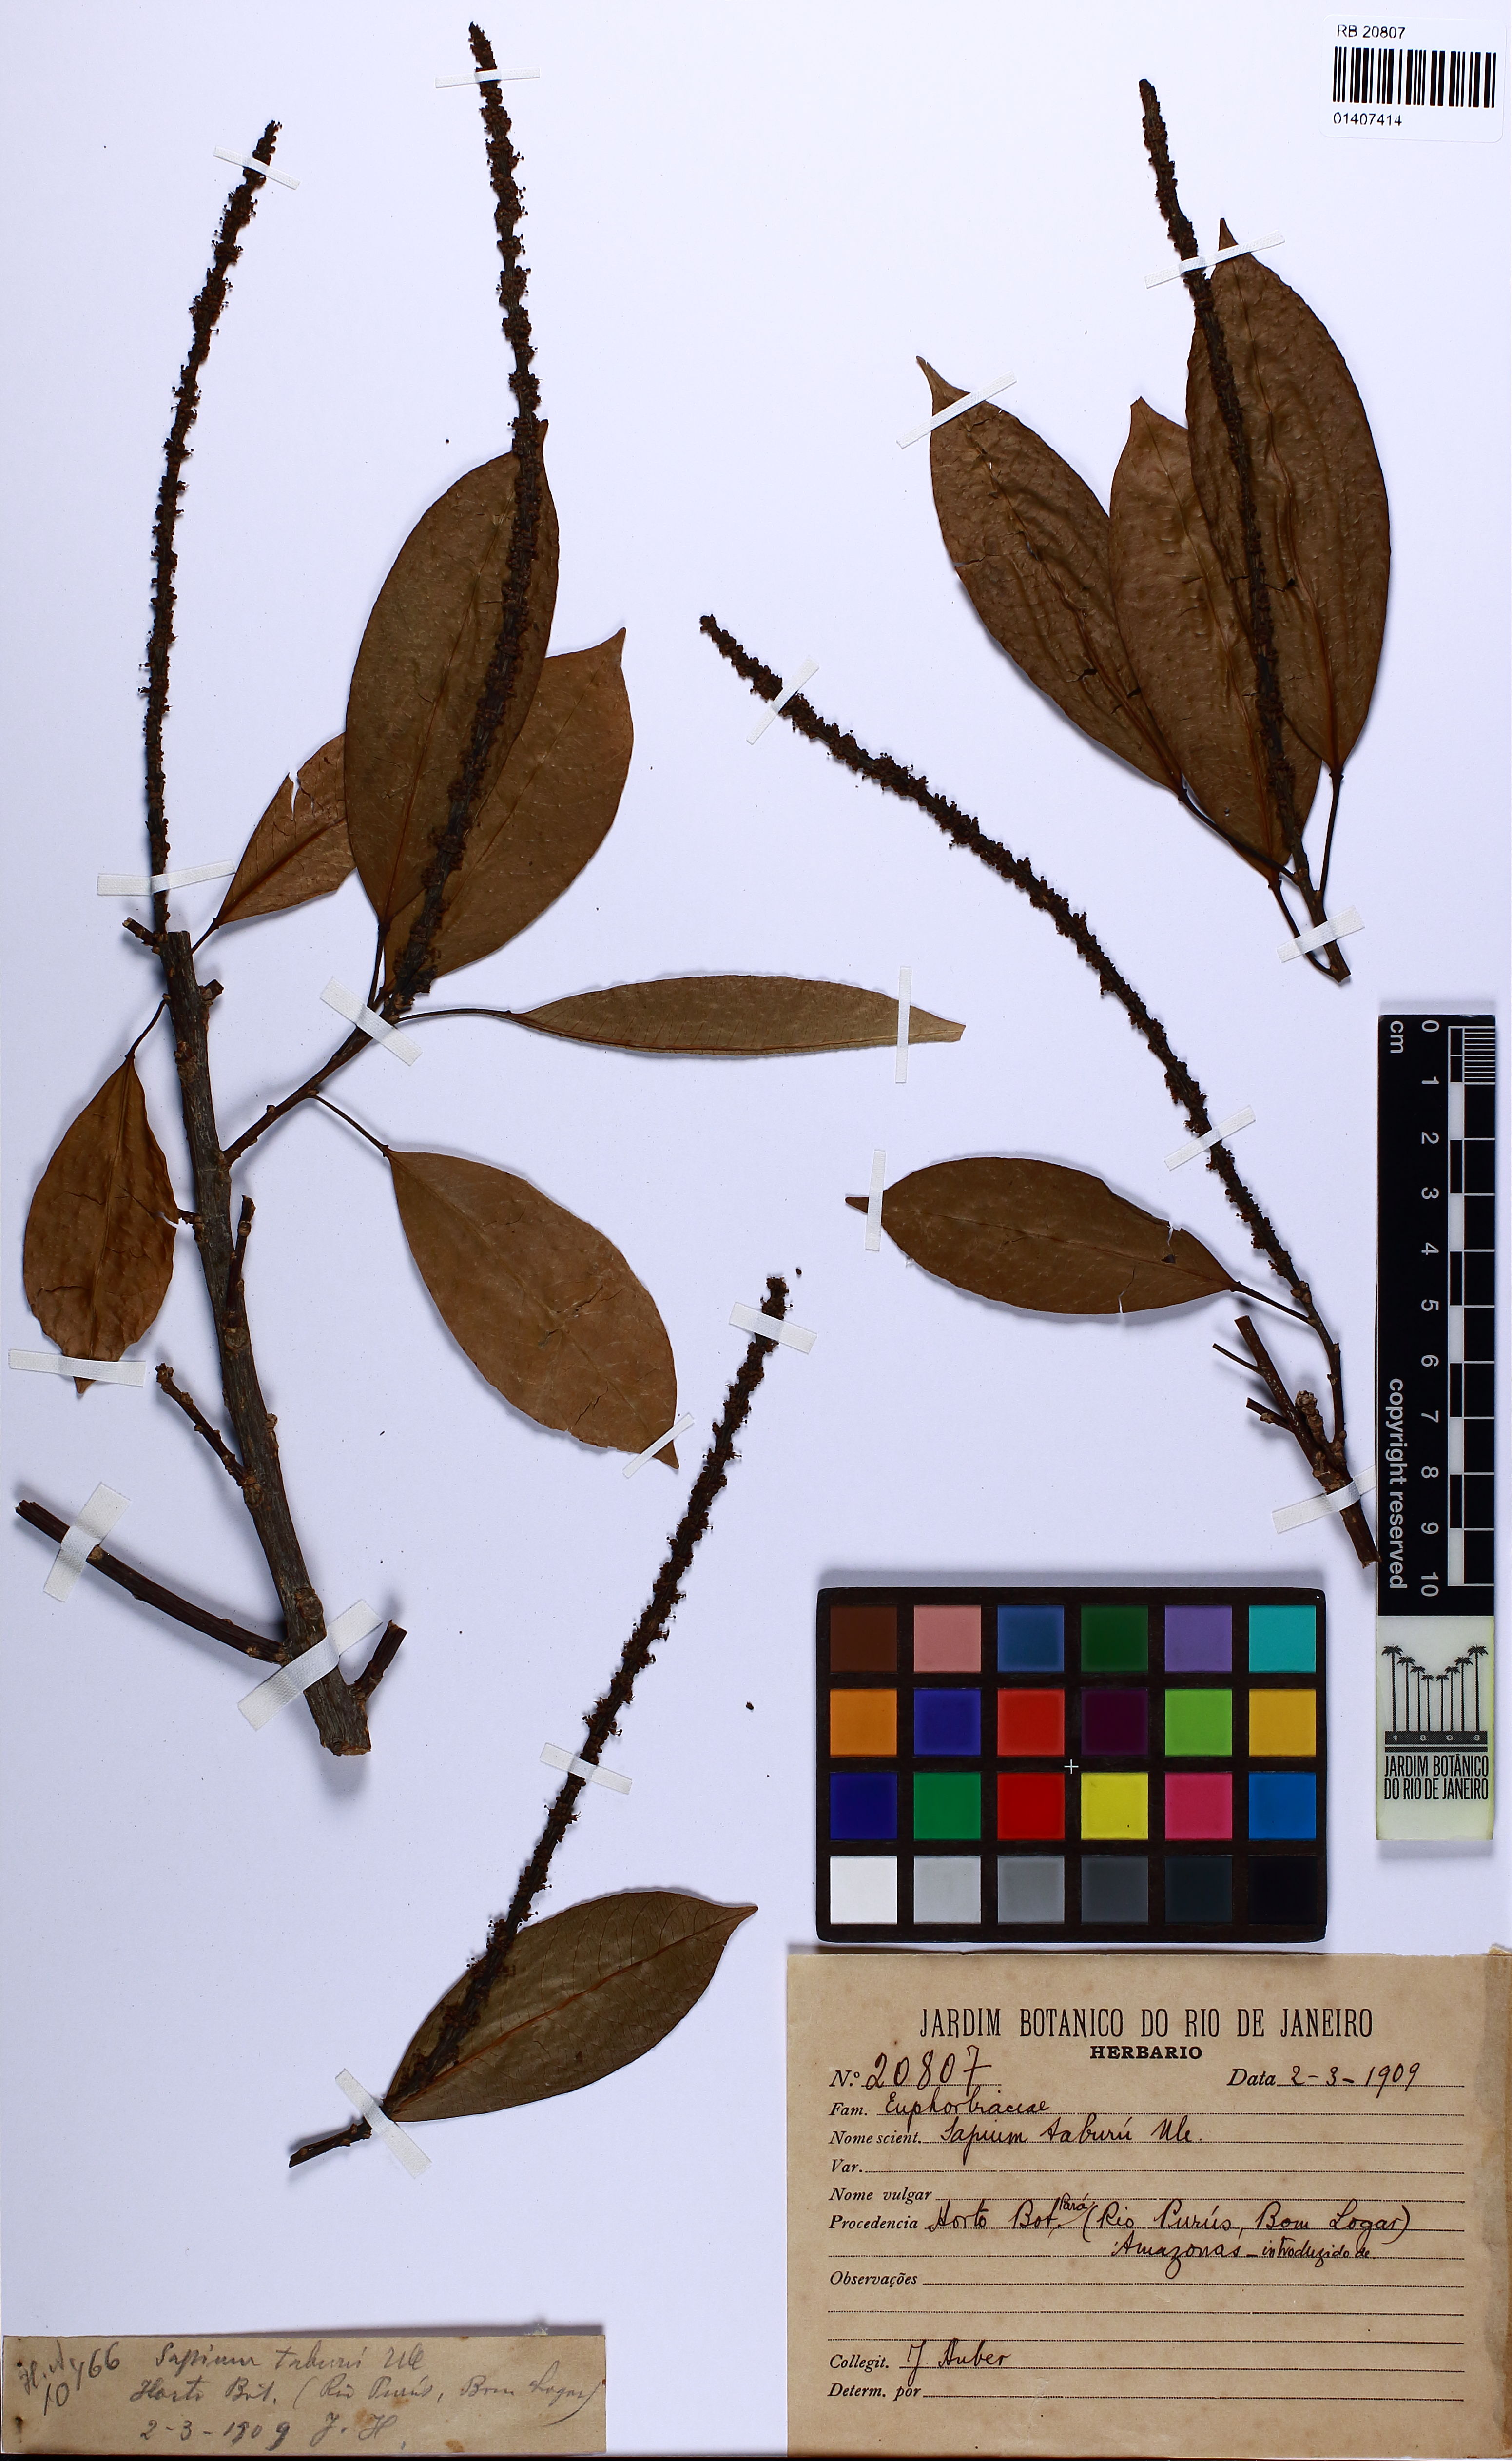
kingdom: Plantae
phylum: Tracheophyta
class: Magnoliopsida
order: Malpighiales
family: Euphorbiaceae
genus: Sapium
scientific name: Sapium glandulosum
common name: Milktree
